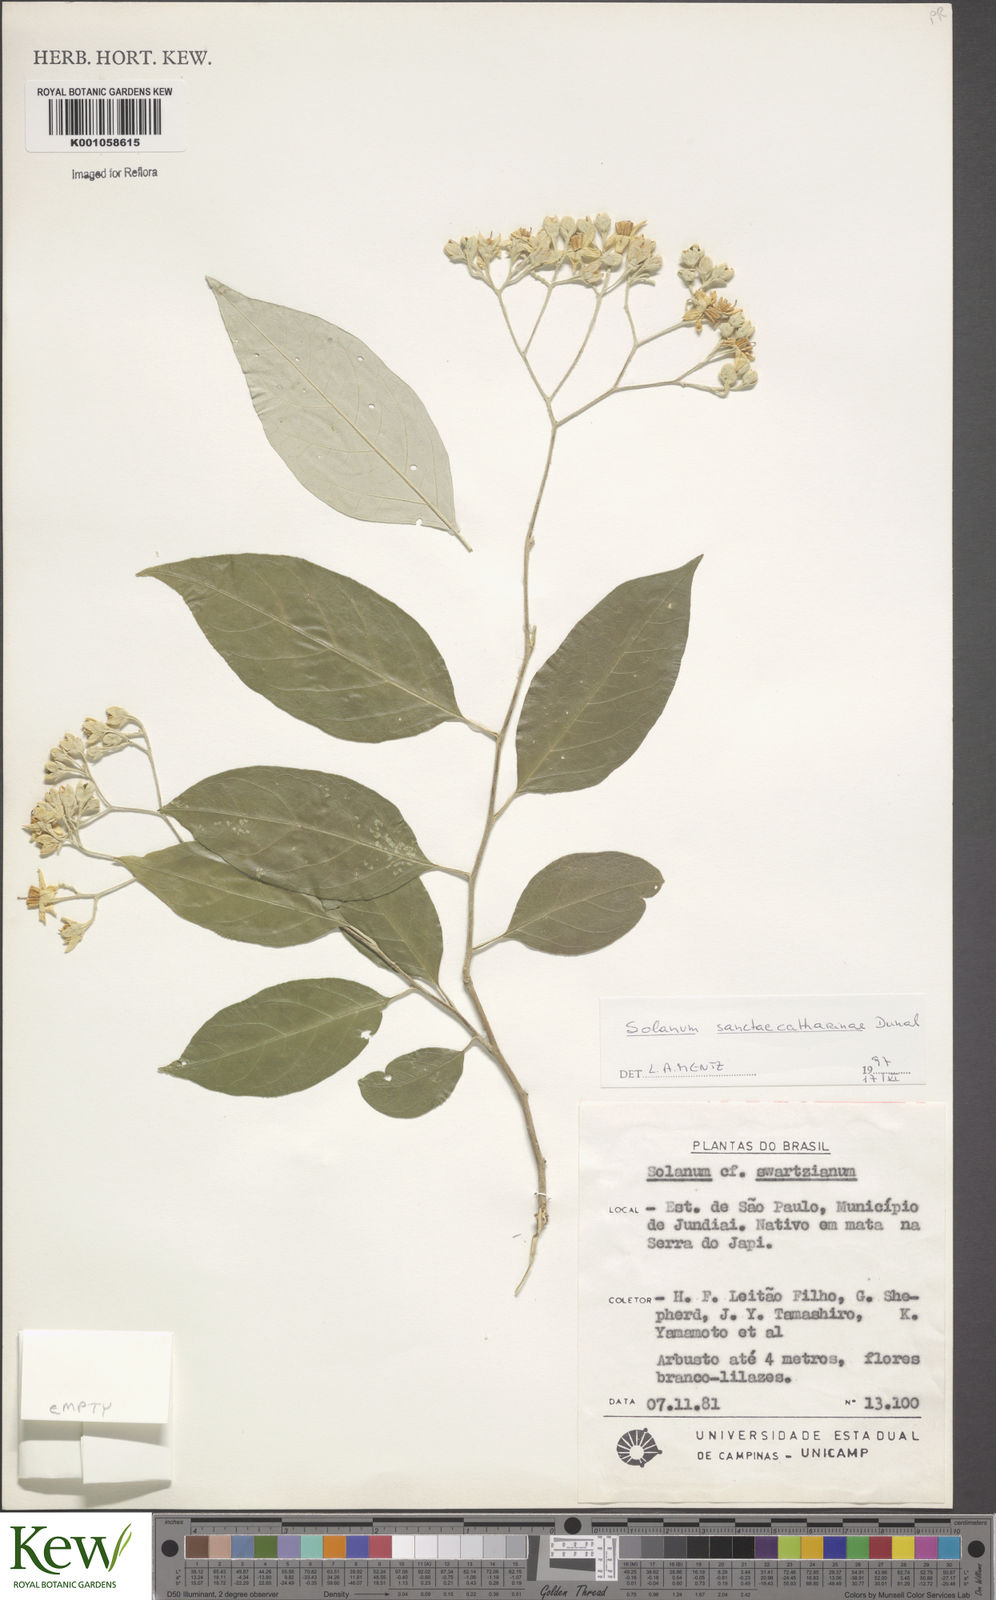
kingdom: Plantae
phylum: Tracheophyta
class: Magnoliopsida
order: Solanales
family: Solanaceae
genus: Solanum
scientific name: Solanum sanctae-catharinae
